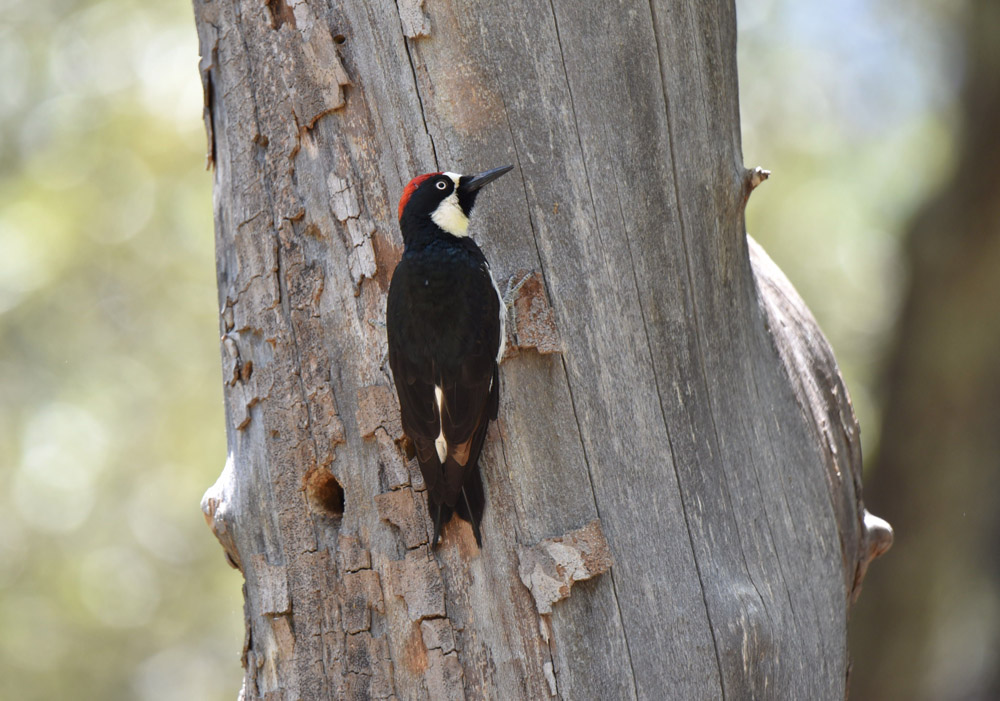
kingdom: Animalia
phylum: Chordata
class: Aves
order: Piciformes
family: Picidae
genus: Melanerpes
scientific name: Melanerpes formicivorus
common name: Acorn woodpecker
